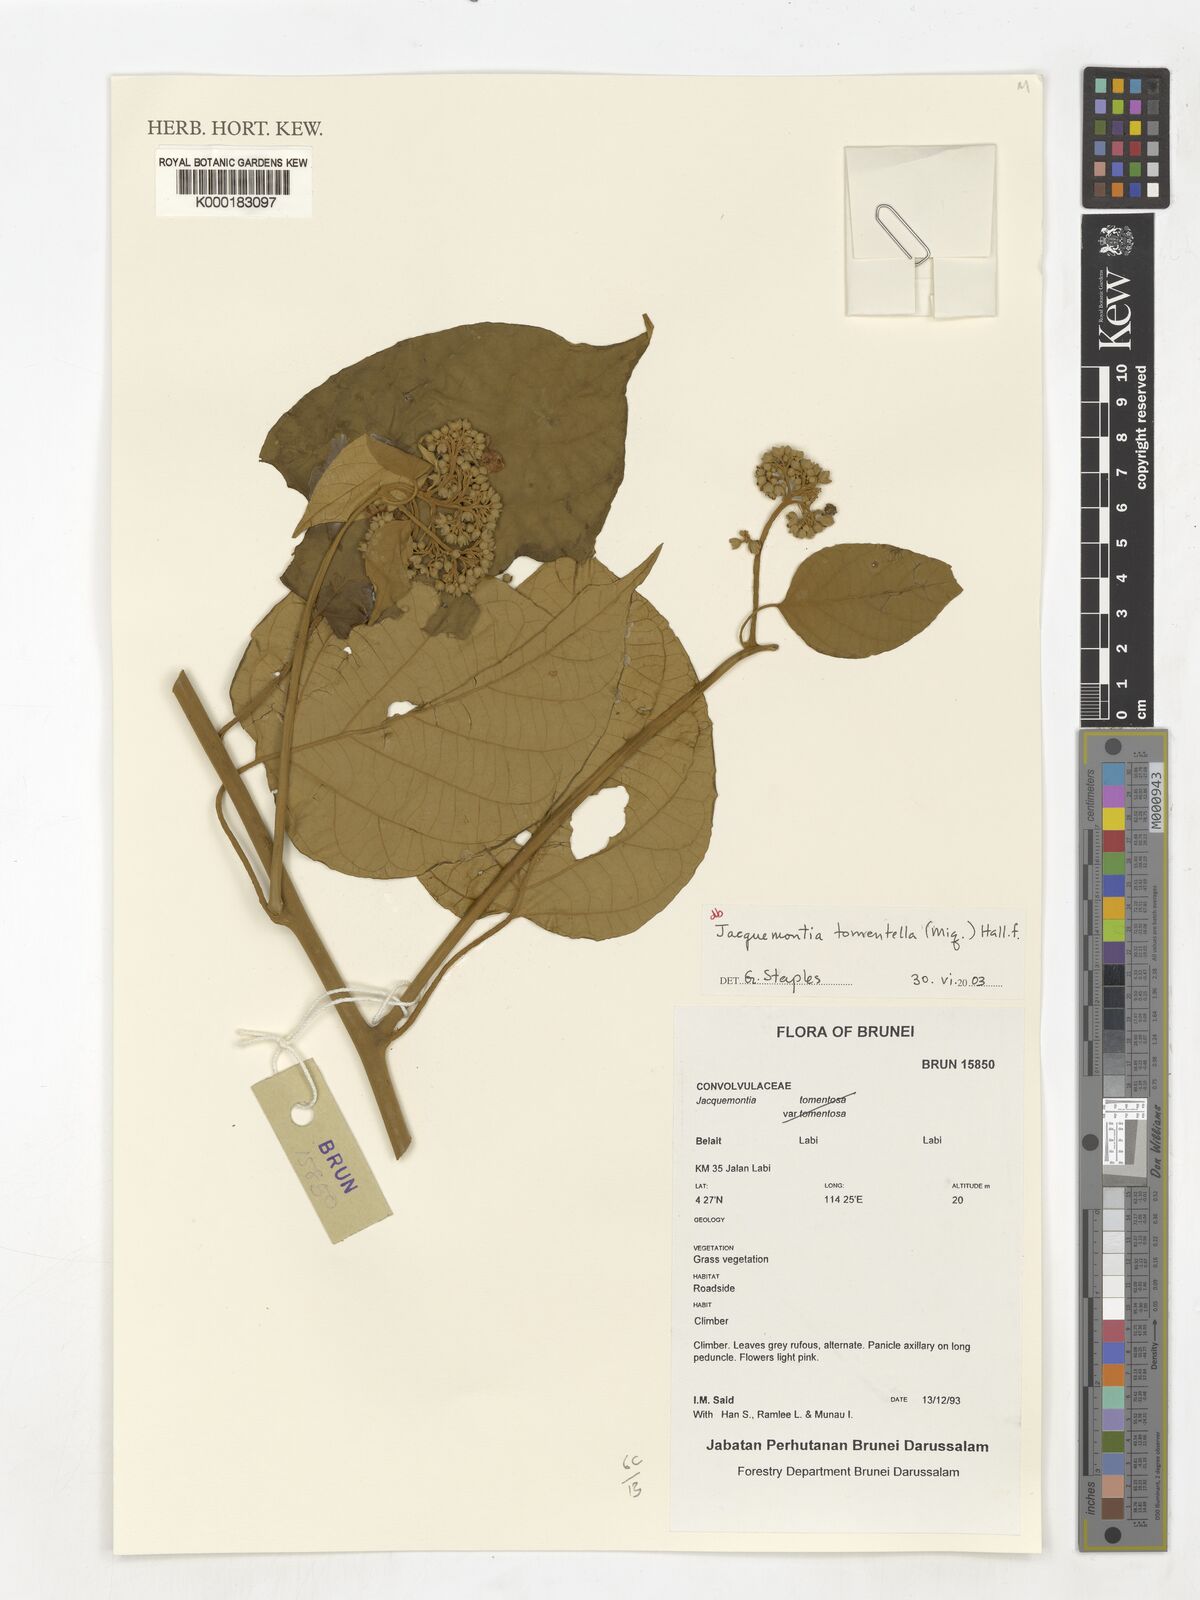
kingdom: Plantae
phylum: Tracheophyta
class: Magnoliopsida
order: Solanales
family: Convolvulaceae
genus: Jacquemontia
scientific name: Jacquemontia
